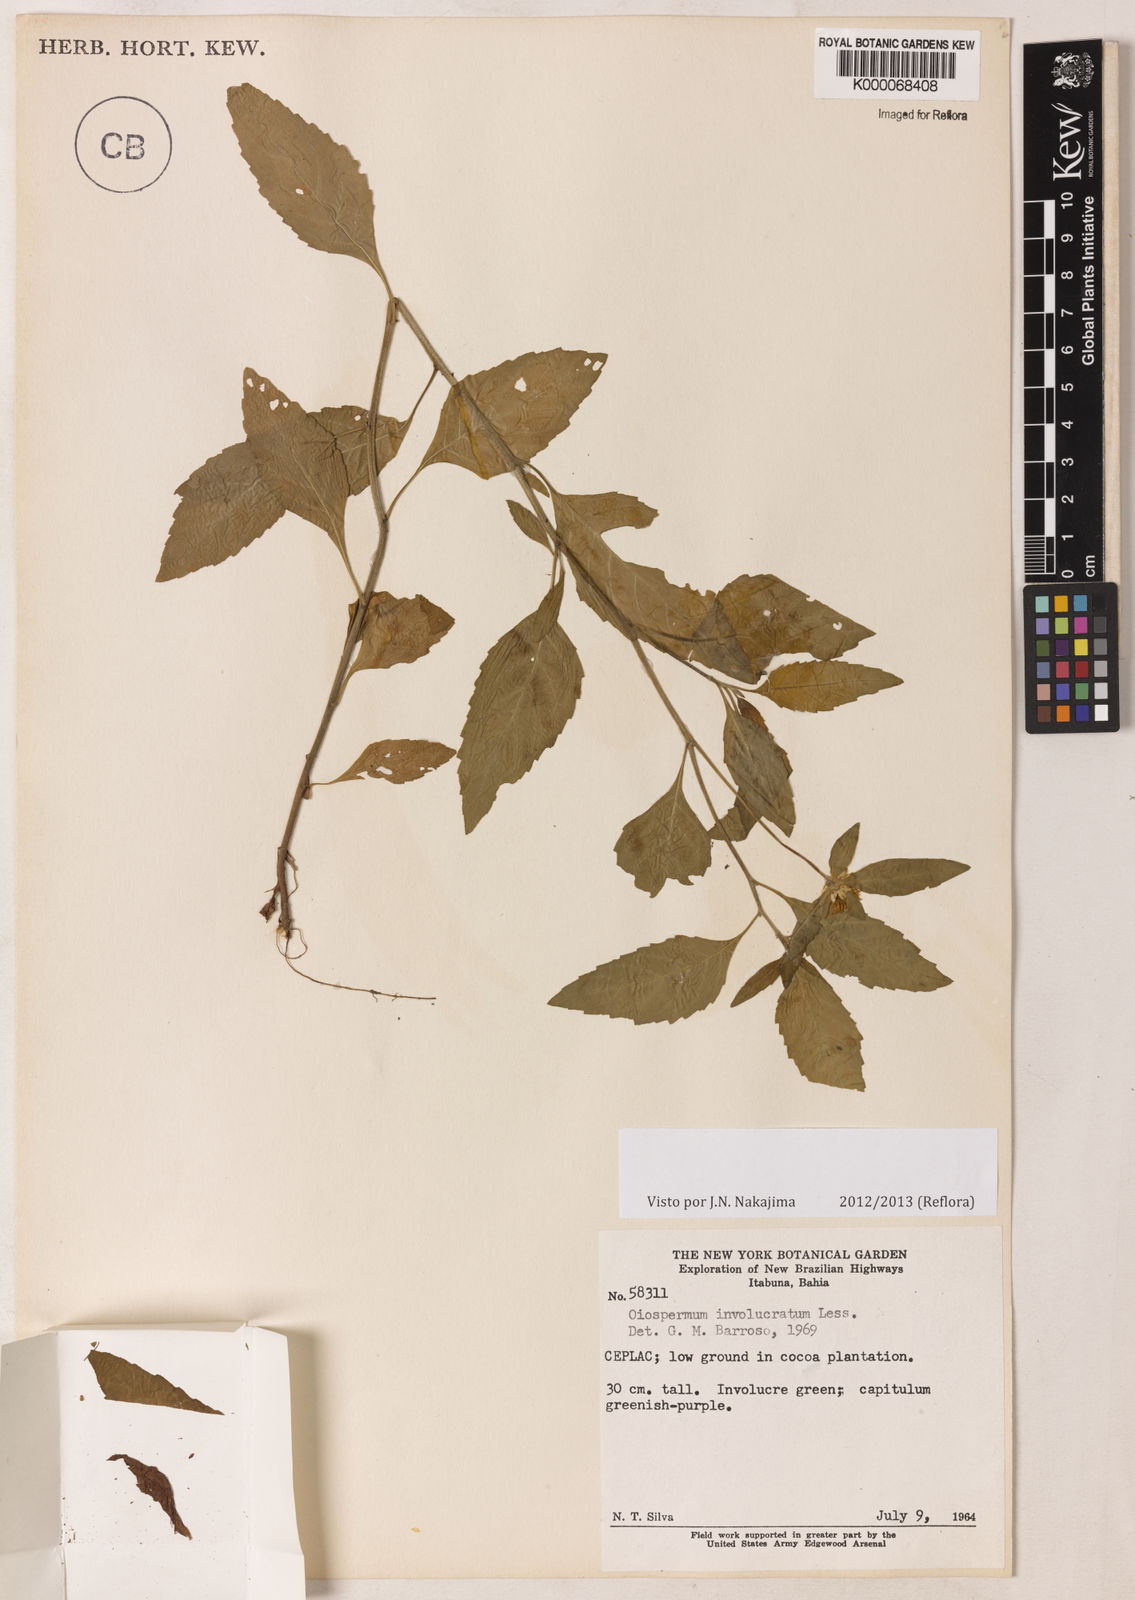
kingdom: Plantae
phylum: Tracheophyta
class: Magnoliopsida
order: Asterales
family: Asteraceae
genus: Centratherum
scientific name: Centratherum repens
